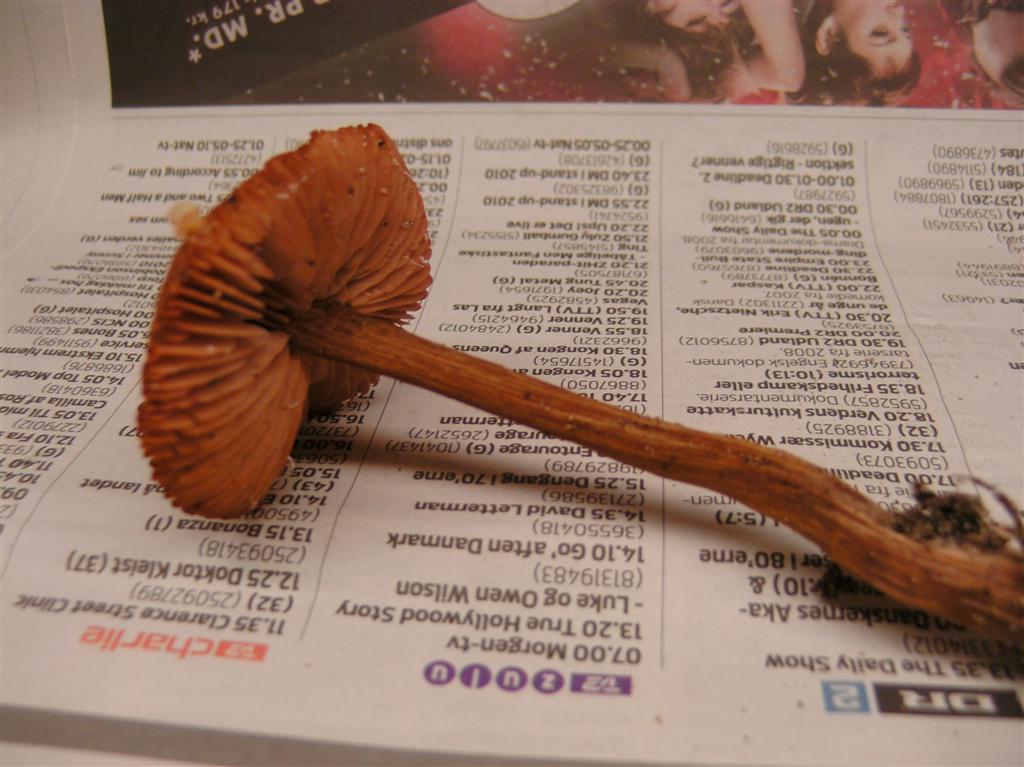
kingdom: Fungi
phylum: Basidiomycota
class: Agaricomycetes
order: Agaricales
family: Hydnangiaceae
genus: Laccaria
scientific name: Laccaria proxima
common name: stor ametysthat
